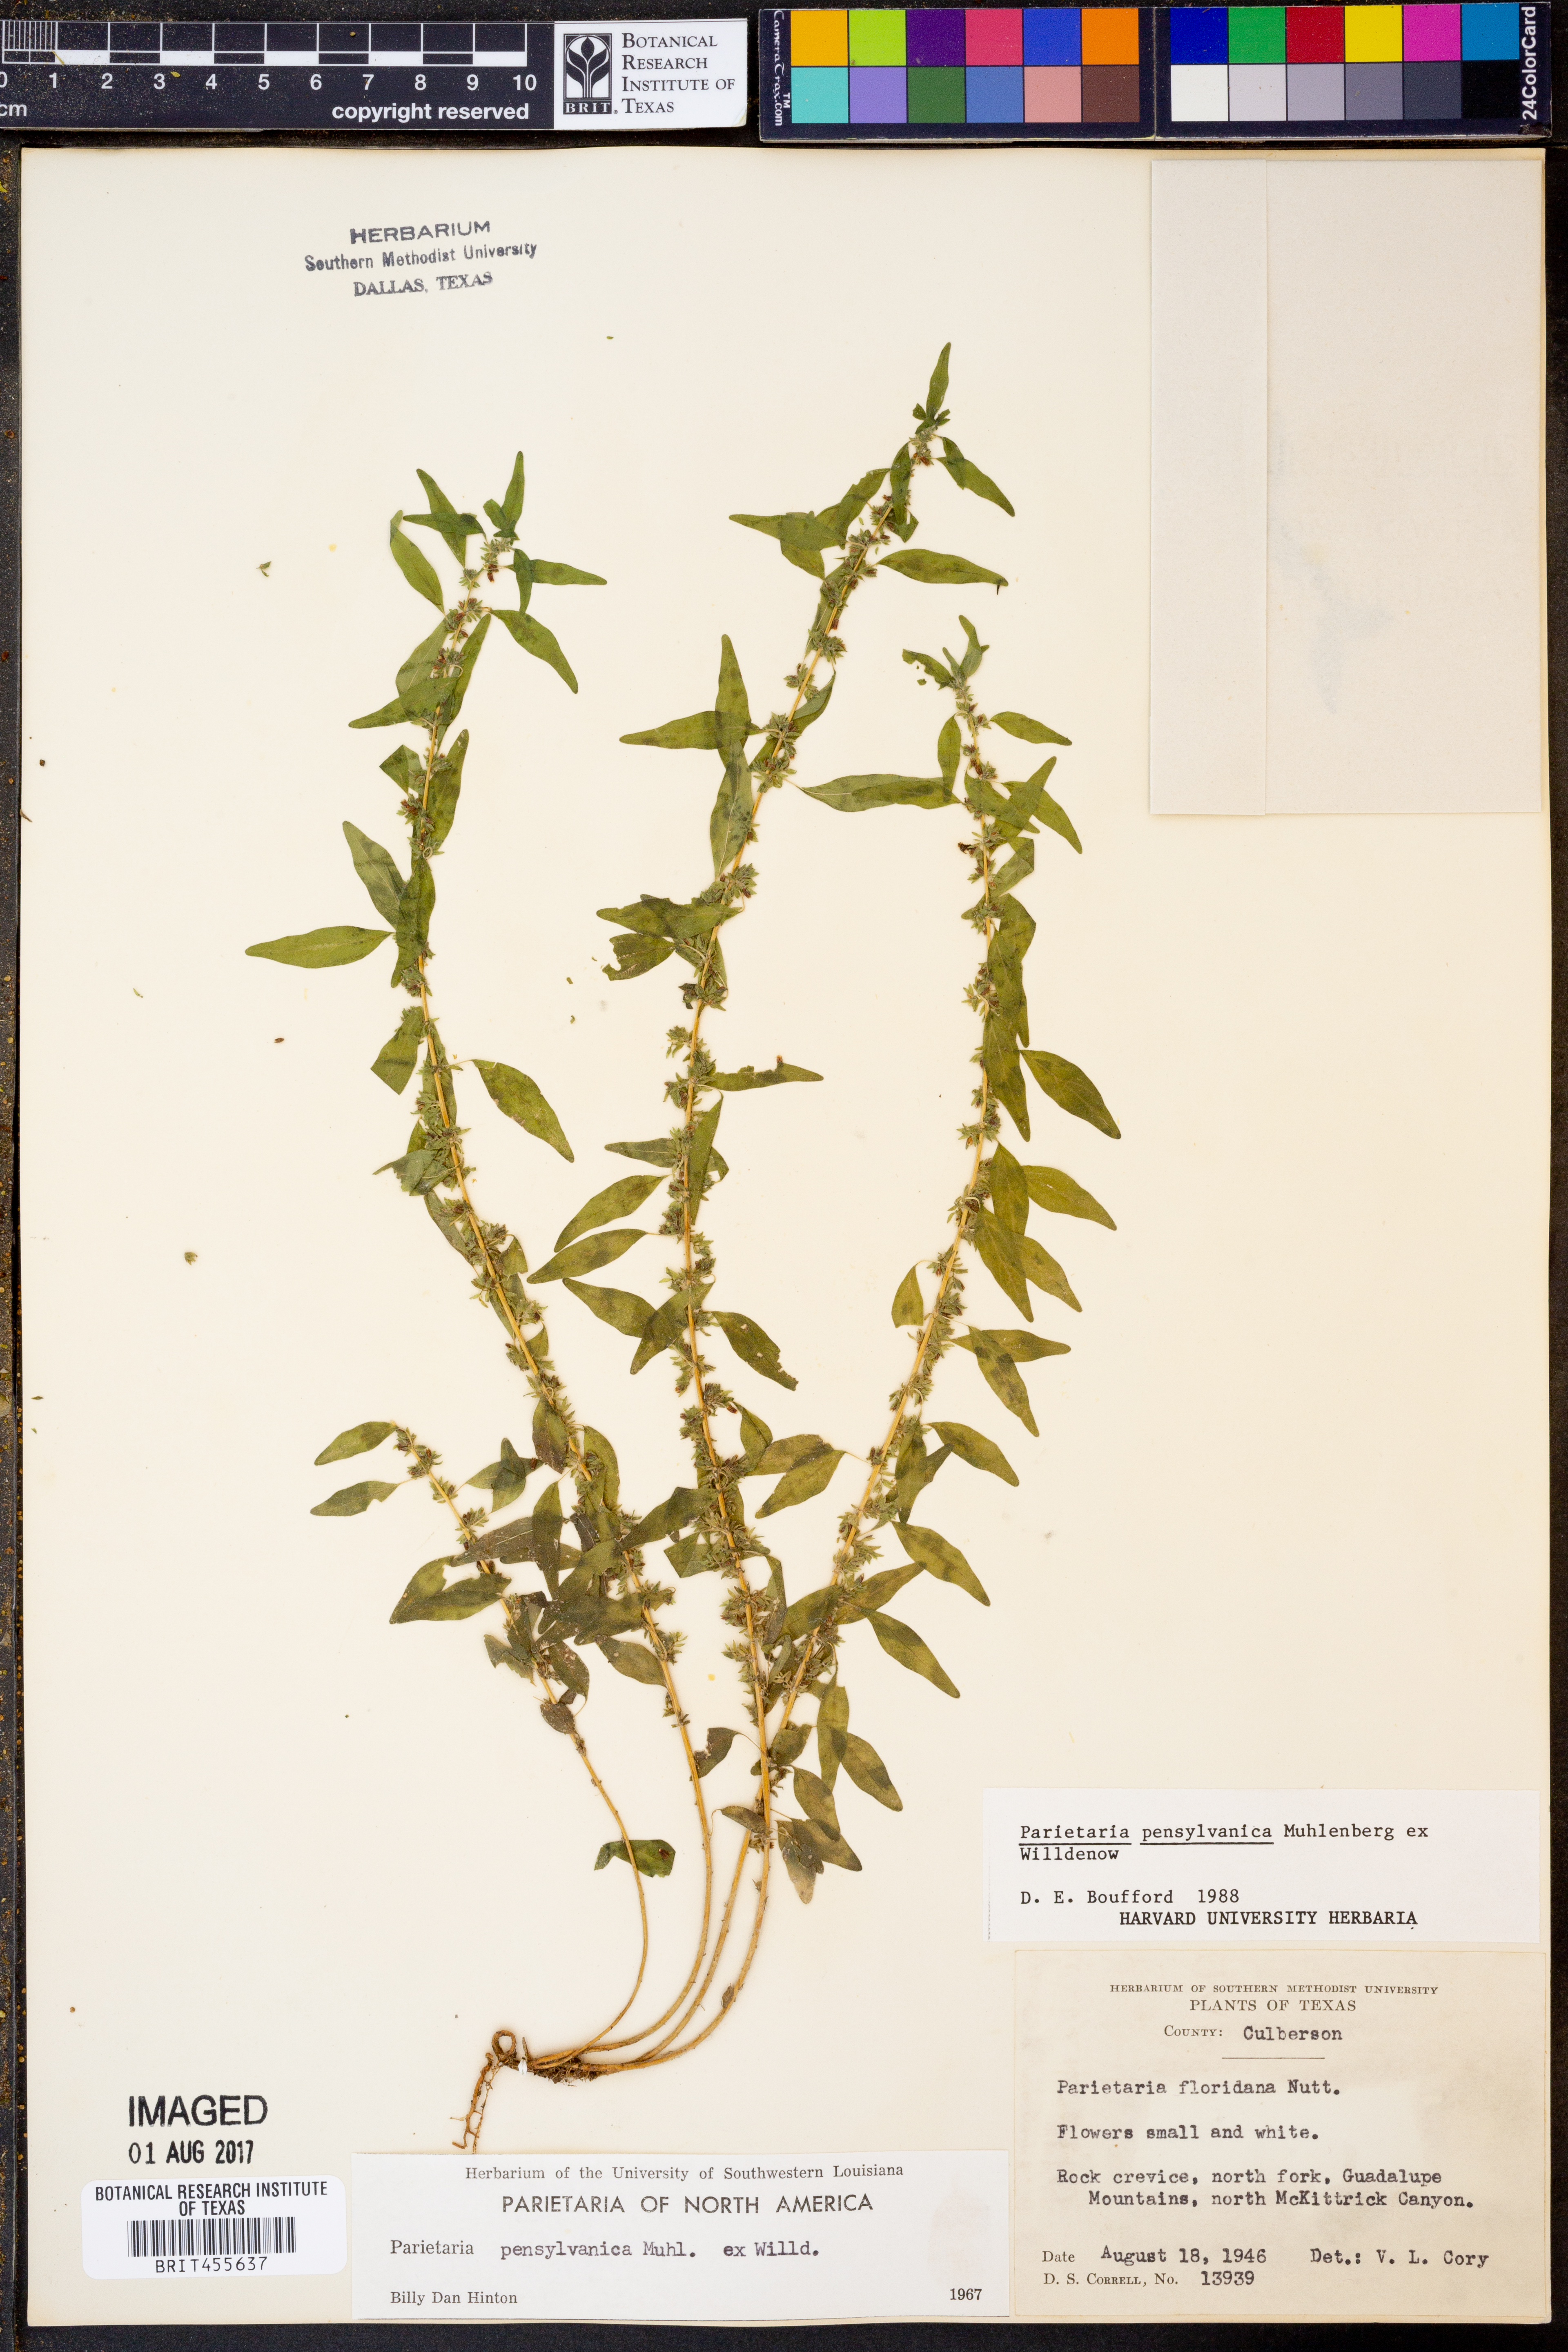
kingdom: Plantae
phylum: Tracheophyta
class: Magnoliopsida
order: Rosales
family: Urticaceae
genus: Parietaria
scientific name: Parietaria pensylvanica
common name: Pennsylvania pellitory
